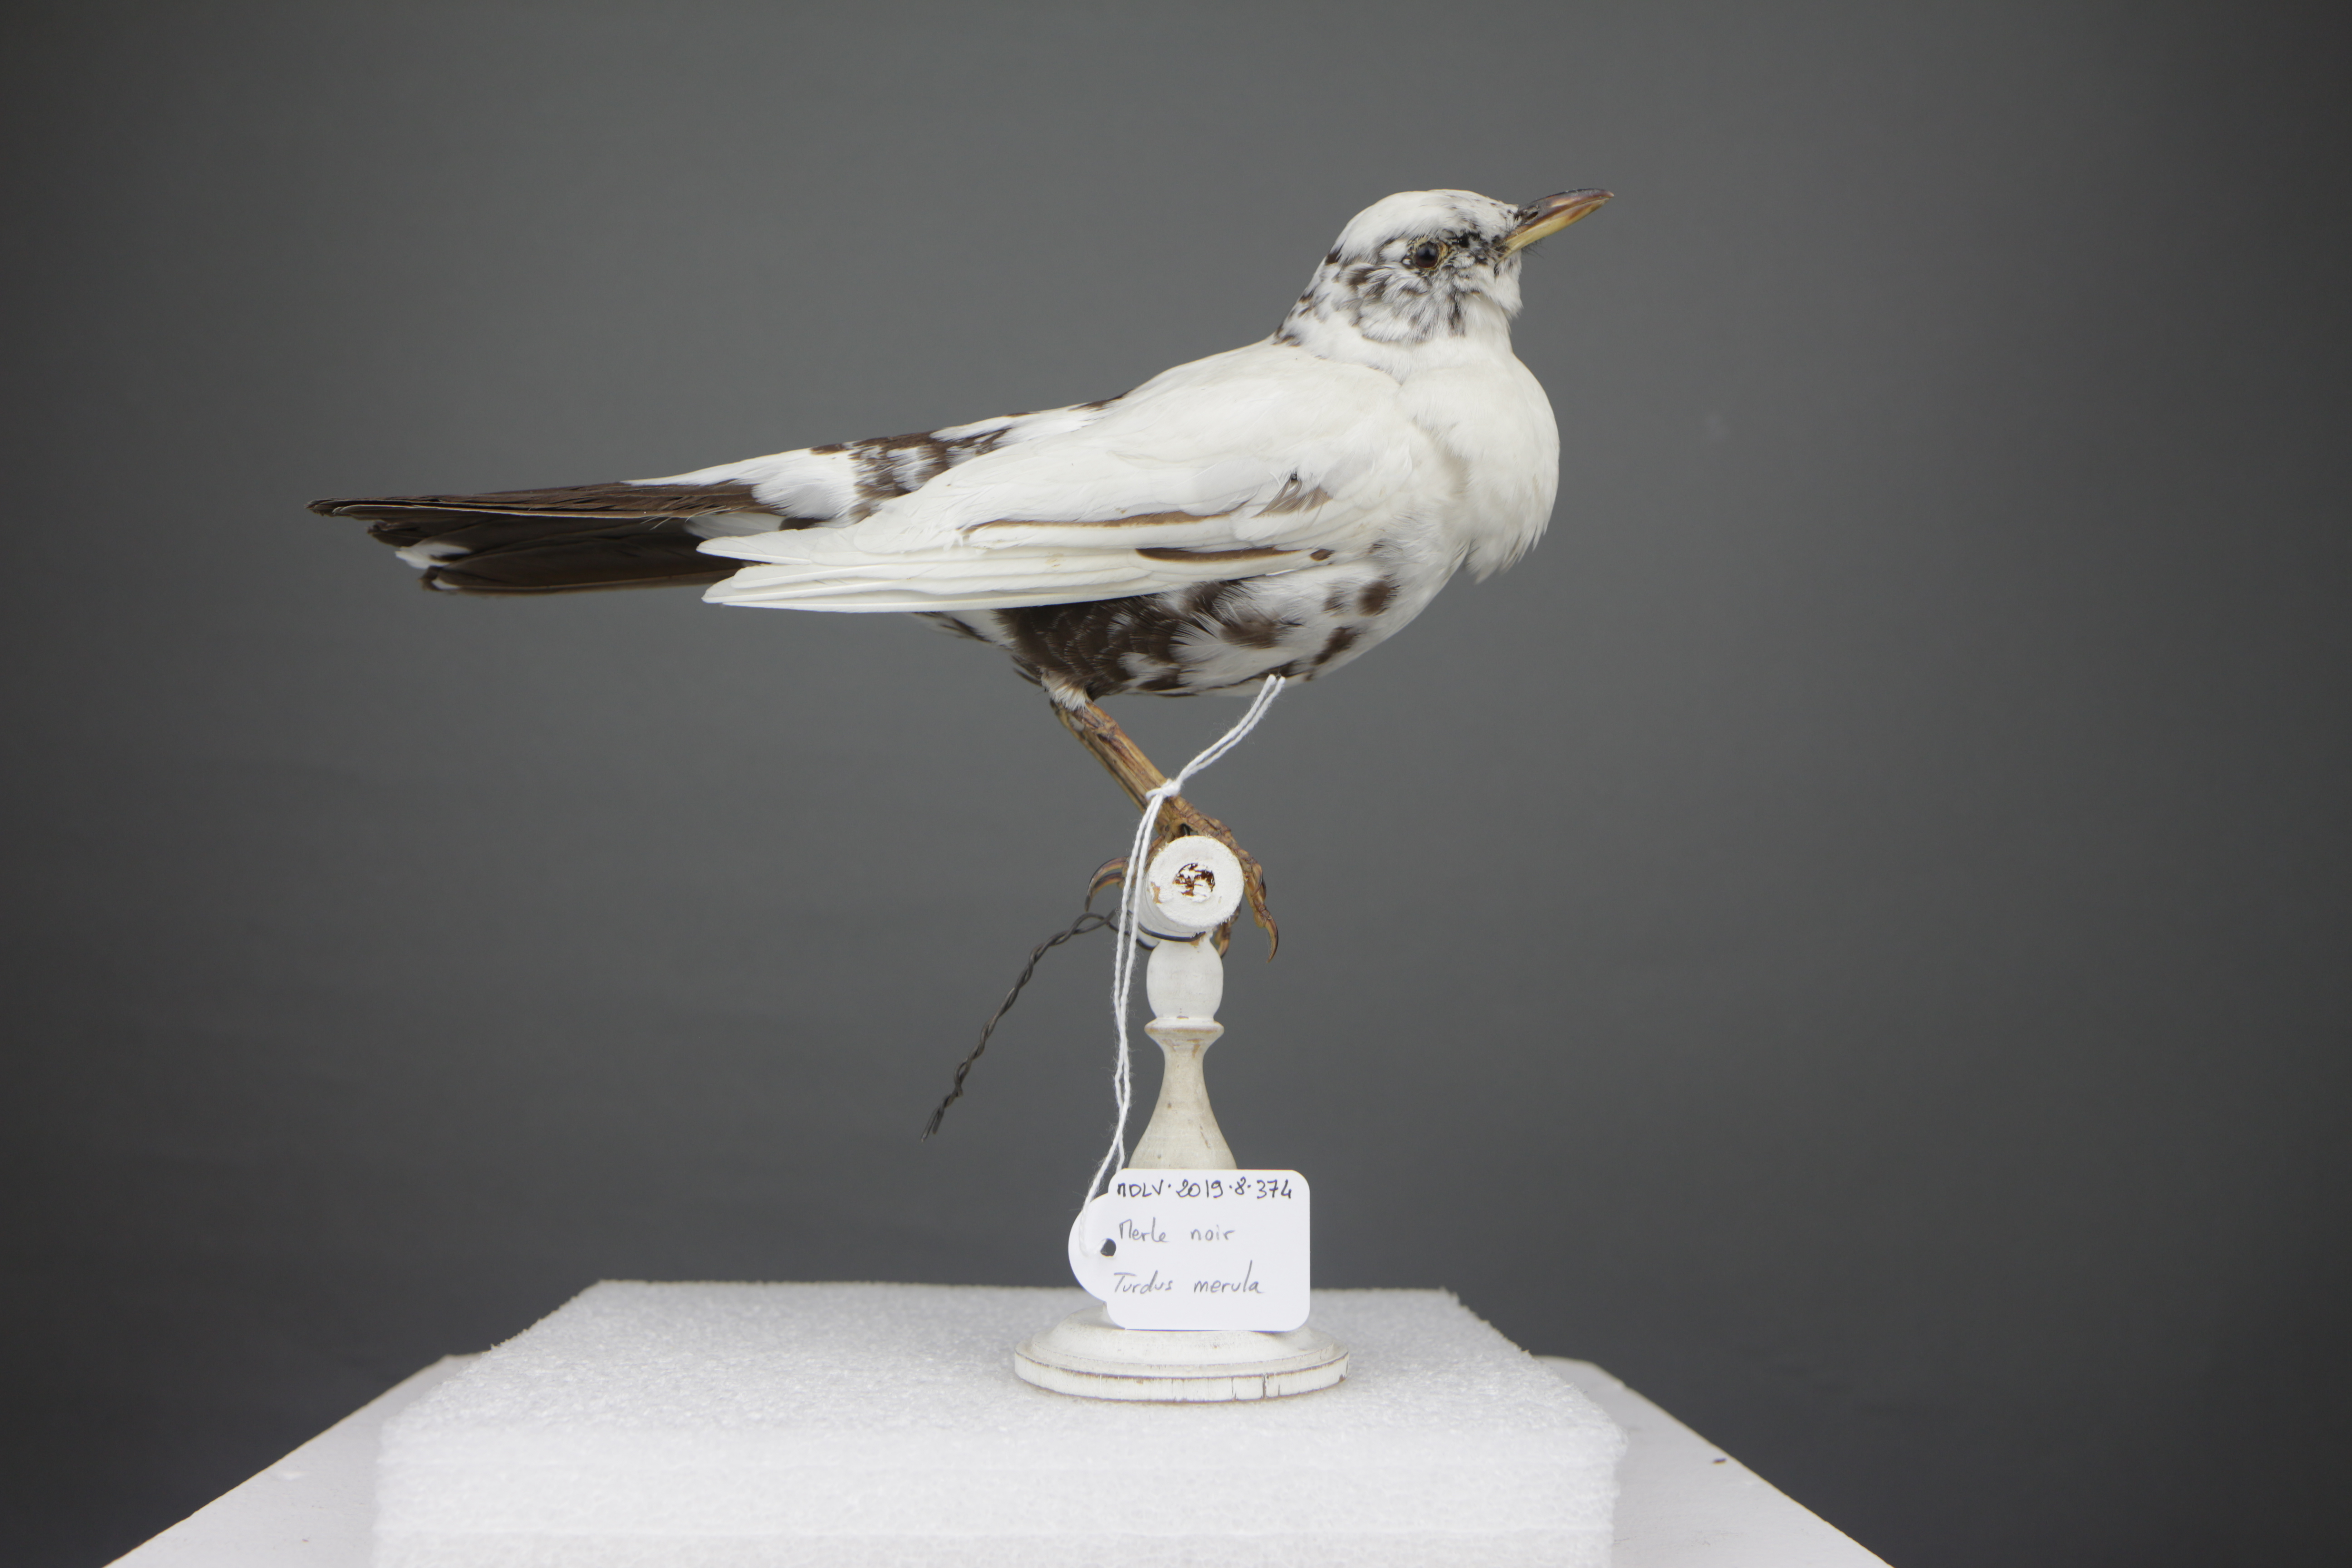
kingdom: Animalia
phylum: Chordata
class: Aves
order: Passeriformes
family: Turdidae
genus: Turdus
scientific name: Turdus merula
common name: Common blackbird
